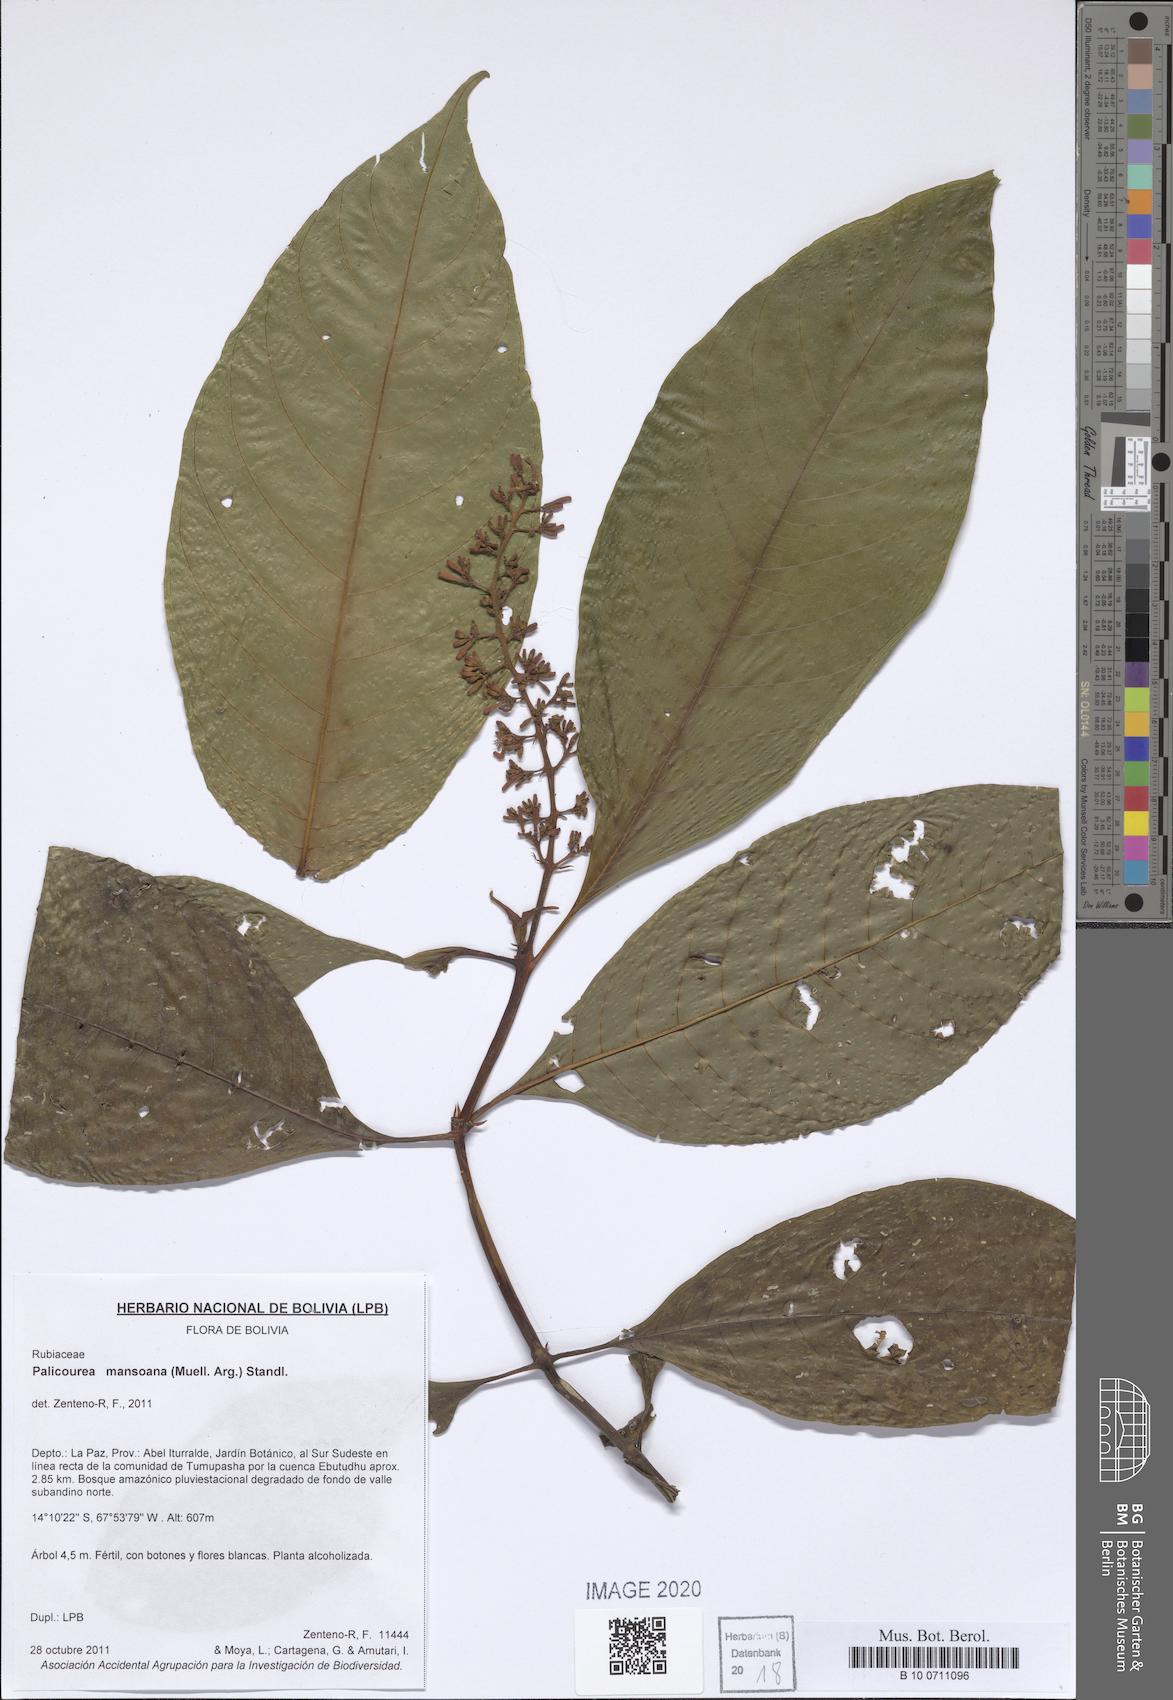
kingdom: Plantae
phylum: Tracheophyta
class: Magnoliopsida
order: Gentianales
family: Rubiaceae
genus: Palicourea
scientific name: Palicourea mansoana
